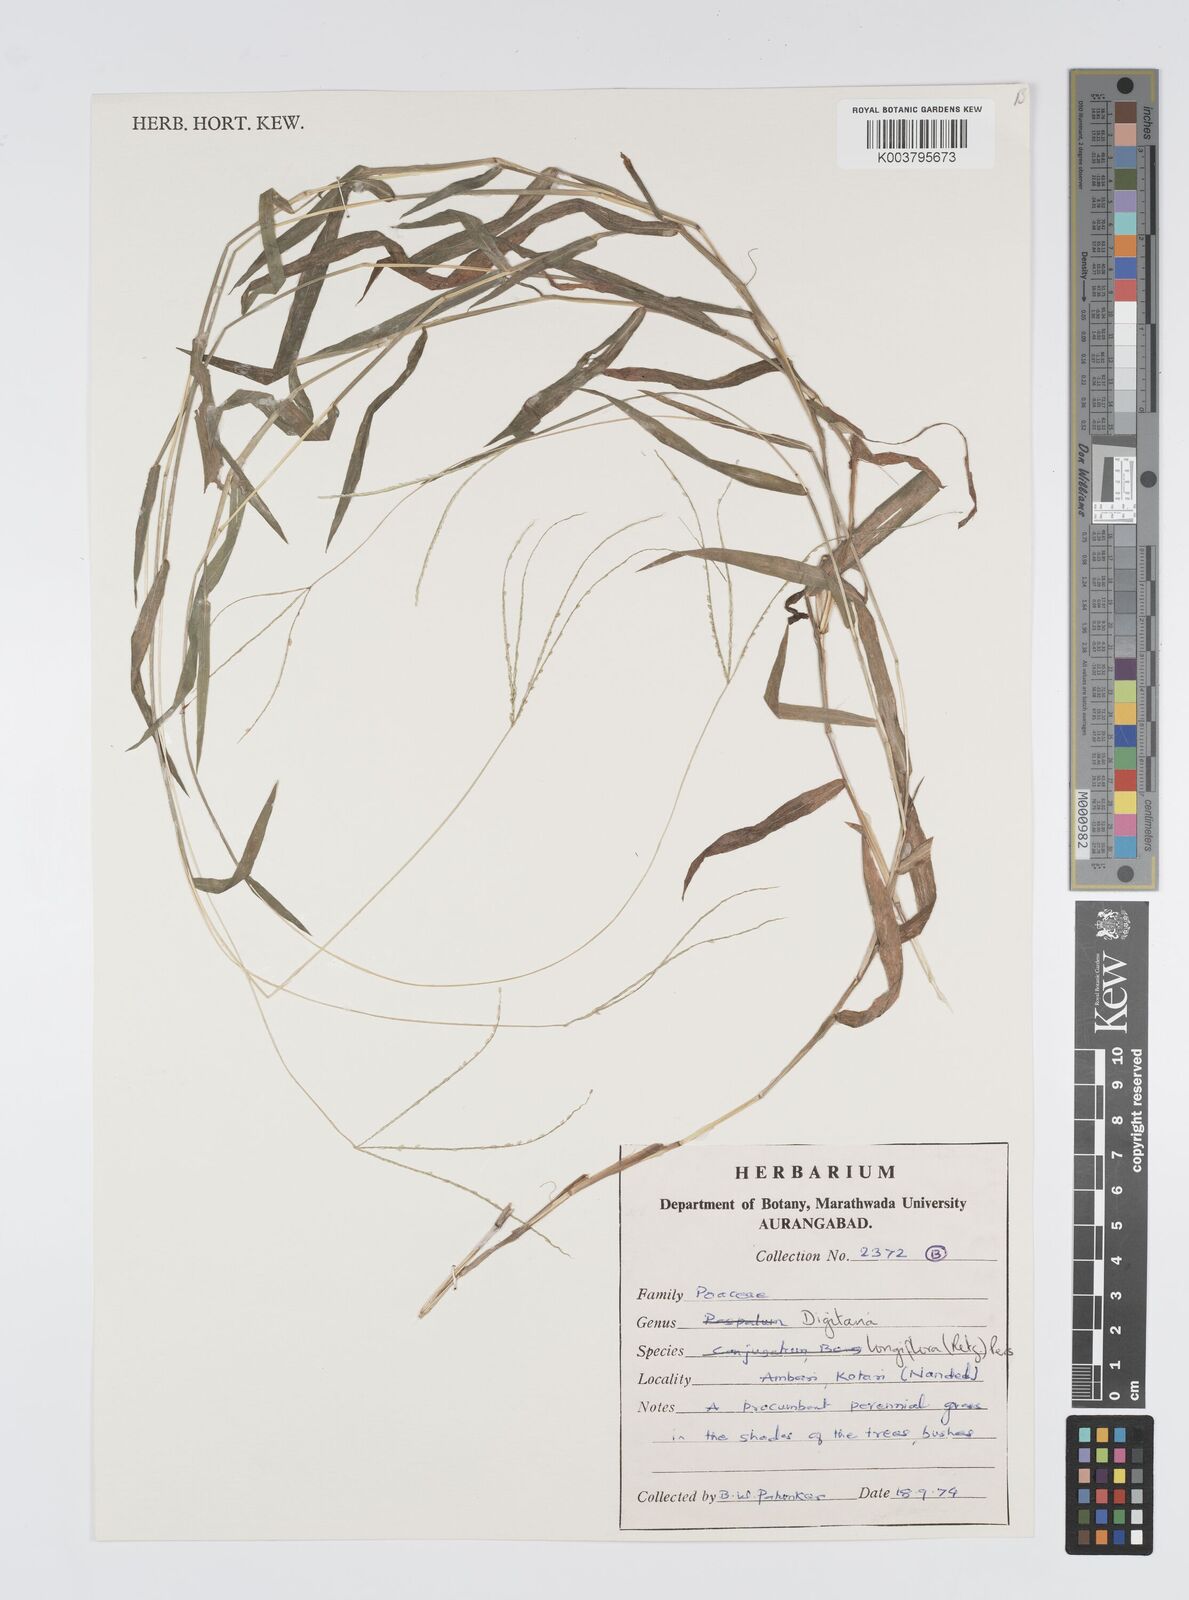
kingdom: Plantae
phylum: Tracheophyta
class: Liliopsida
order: Poales
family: Poaceae
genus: Digitaria
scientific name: Digitaria longiflora
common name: Wire crabgrass
